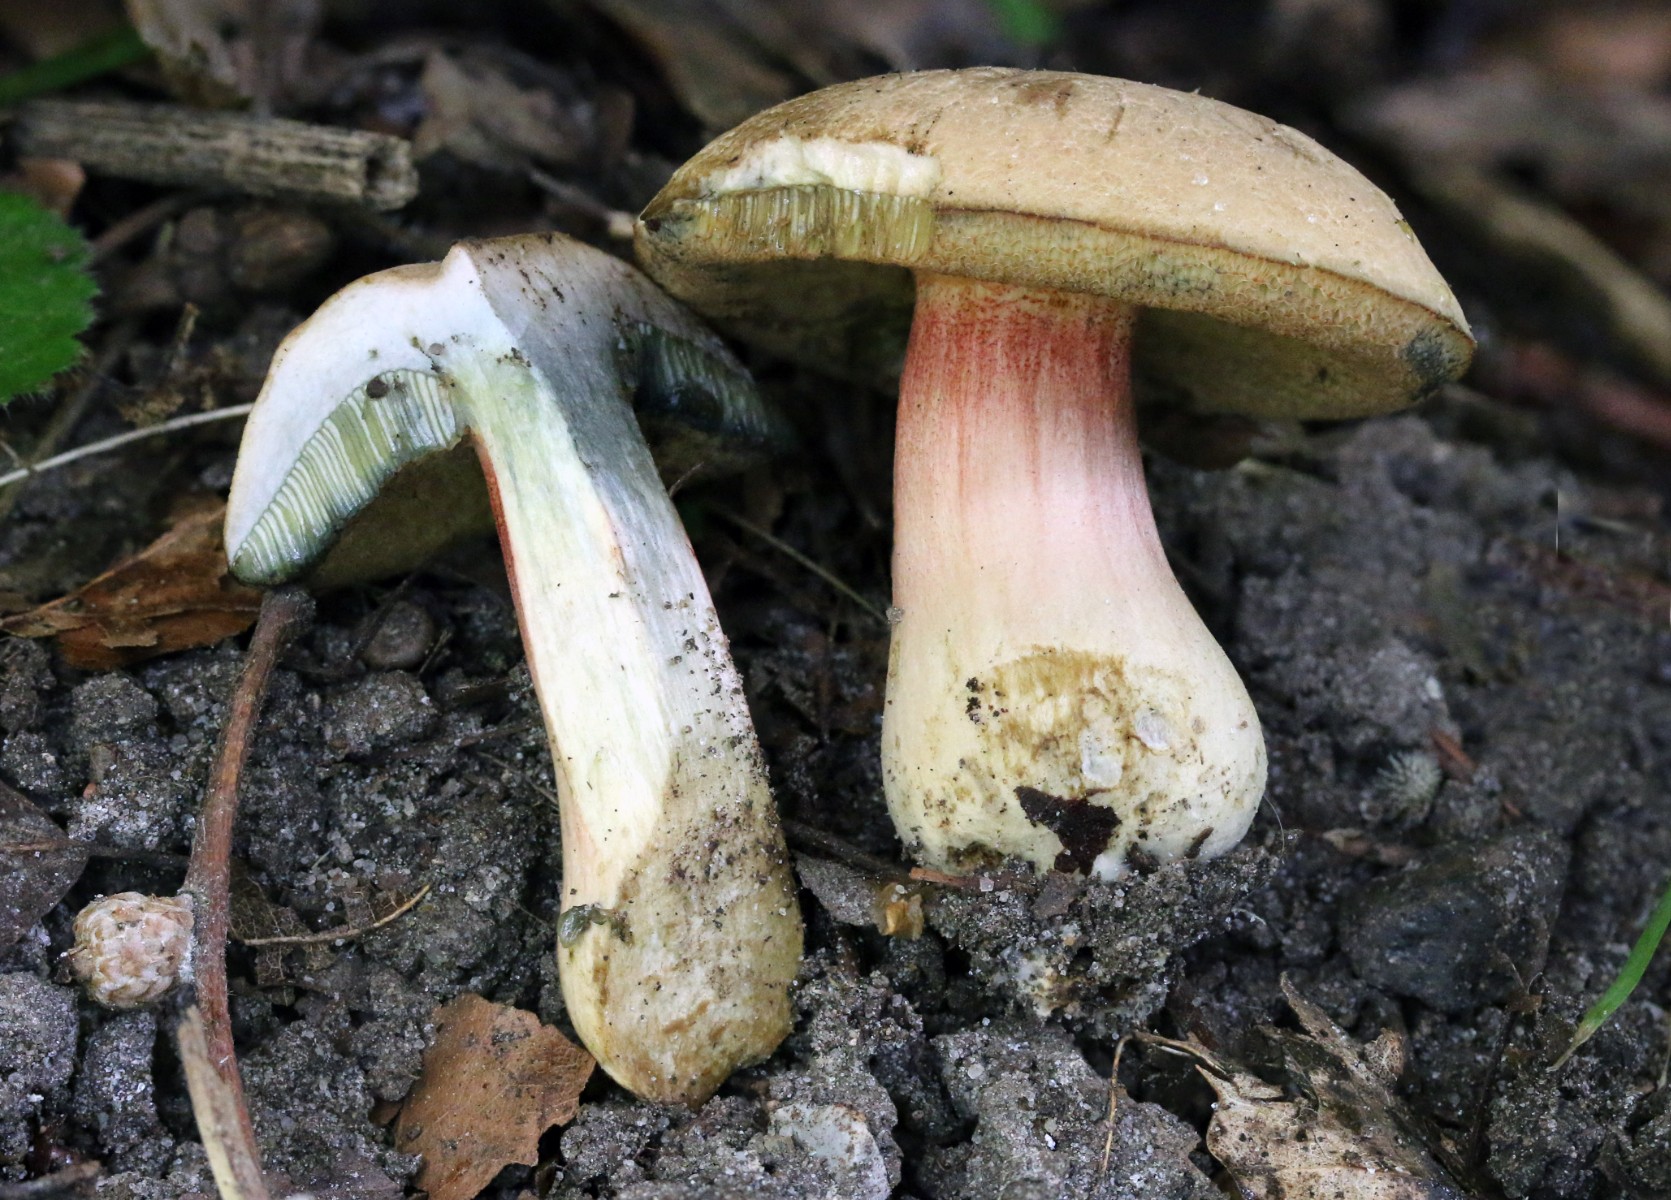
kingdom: Fungi
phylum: Basidiomycota
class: Agaricomycetes
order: Boletales
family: Boletaceae
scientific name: Boletaceae
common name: rørhatfamilien
